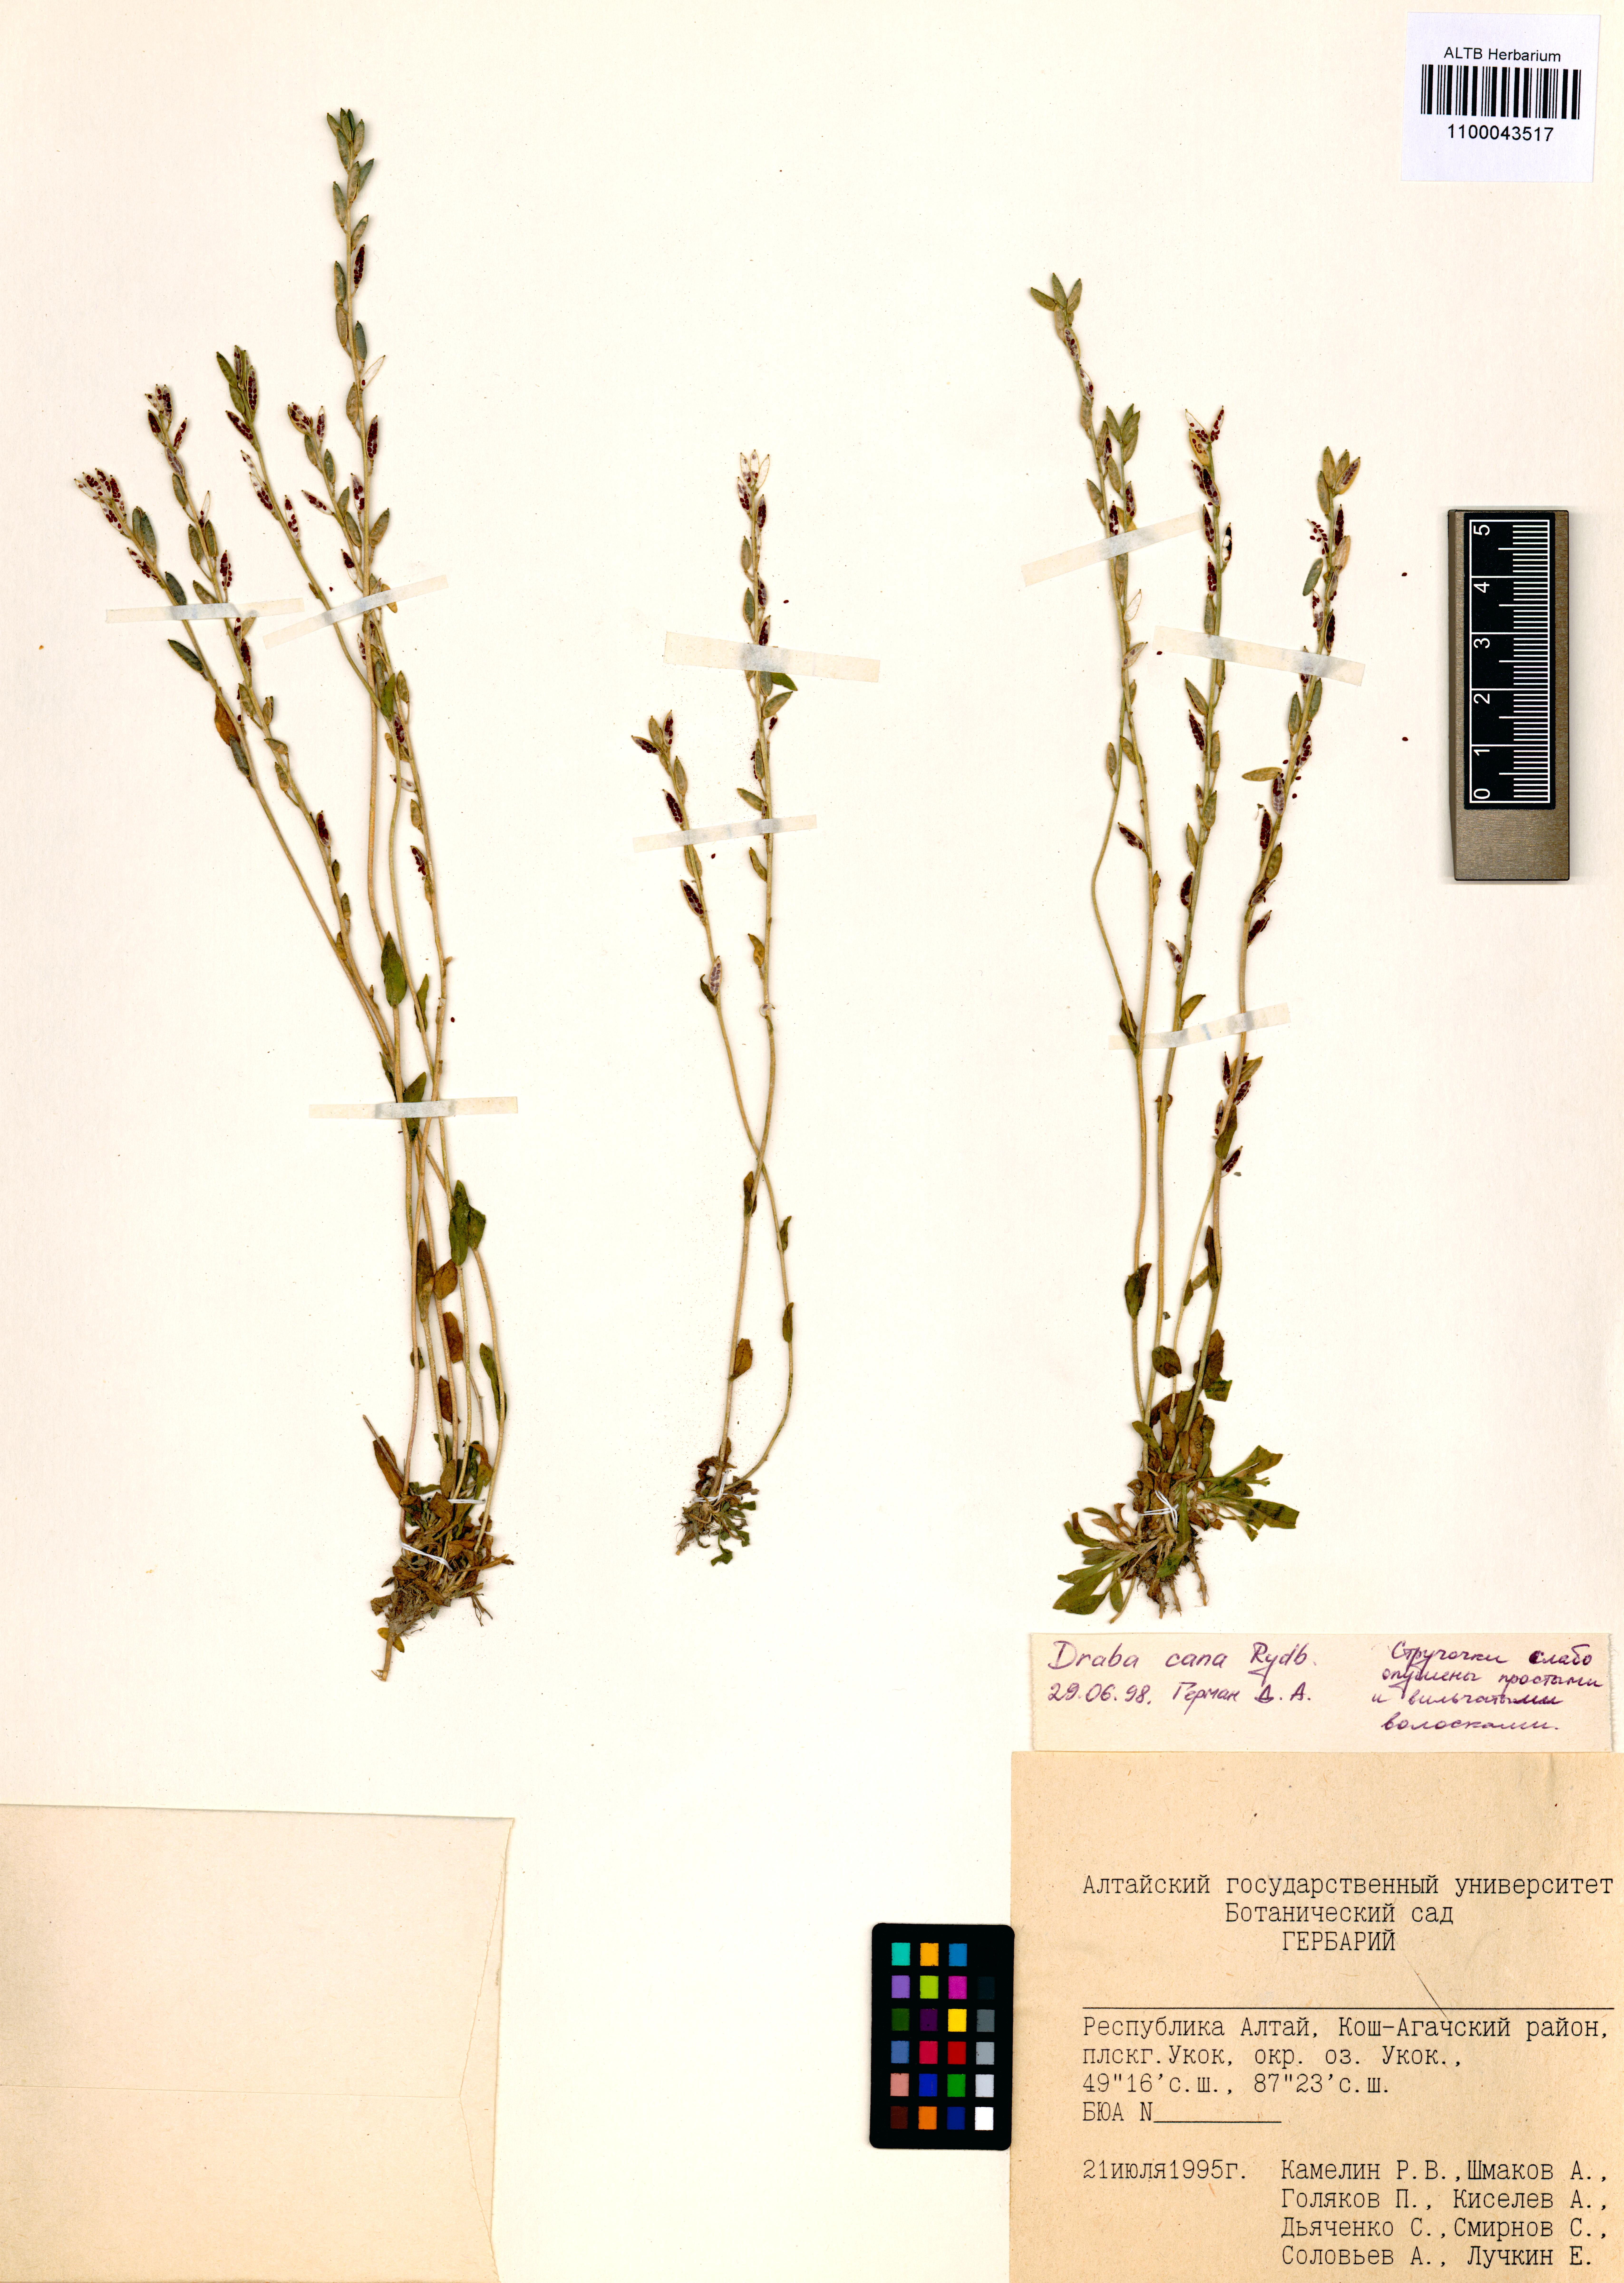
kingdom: Plantae
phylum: Tracheophyta
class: Magnoliopsida
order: Brassicales
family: Brassicaceae
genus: Draba
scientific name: Draba cana
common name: Hoary draba
